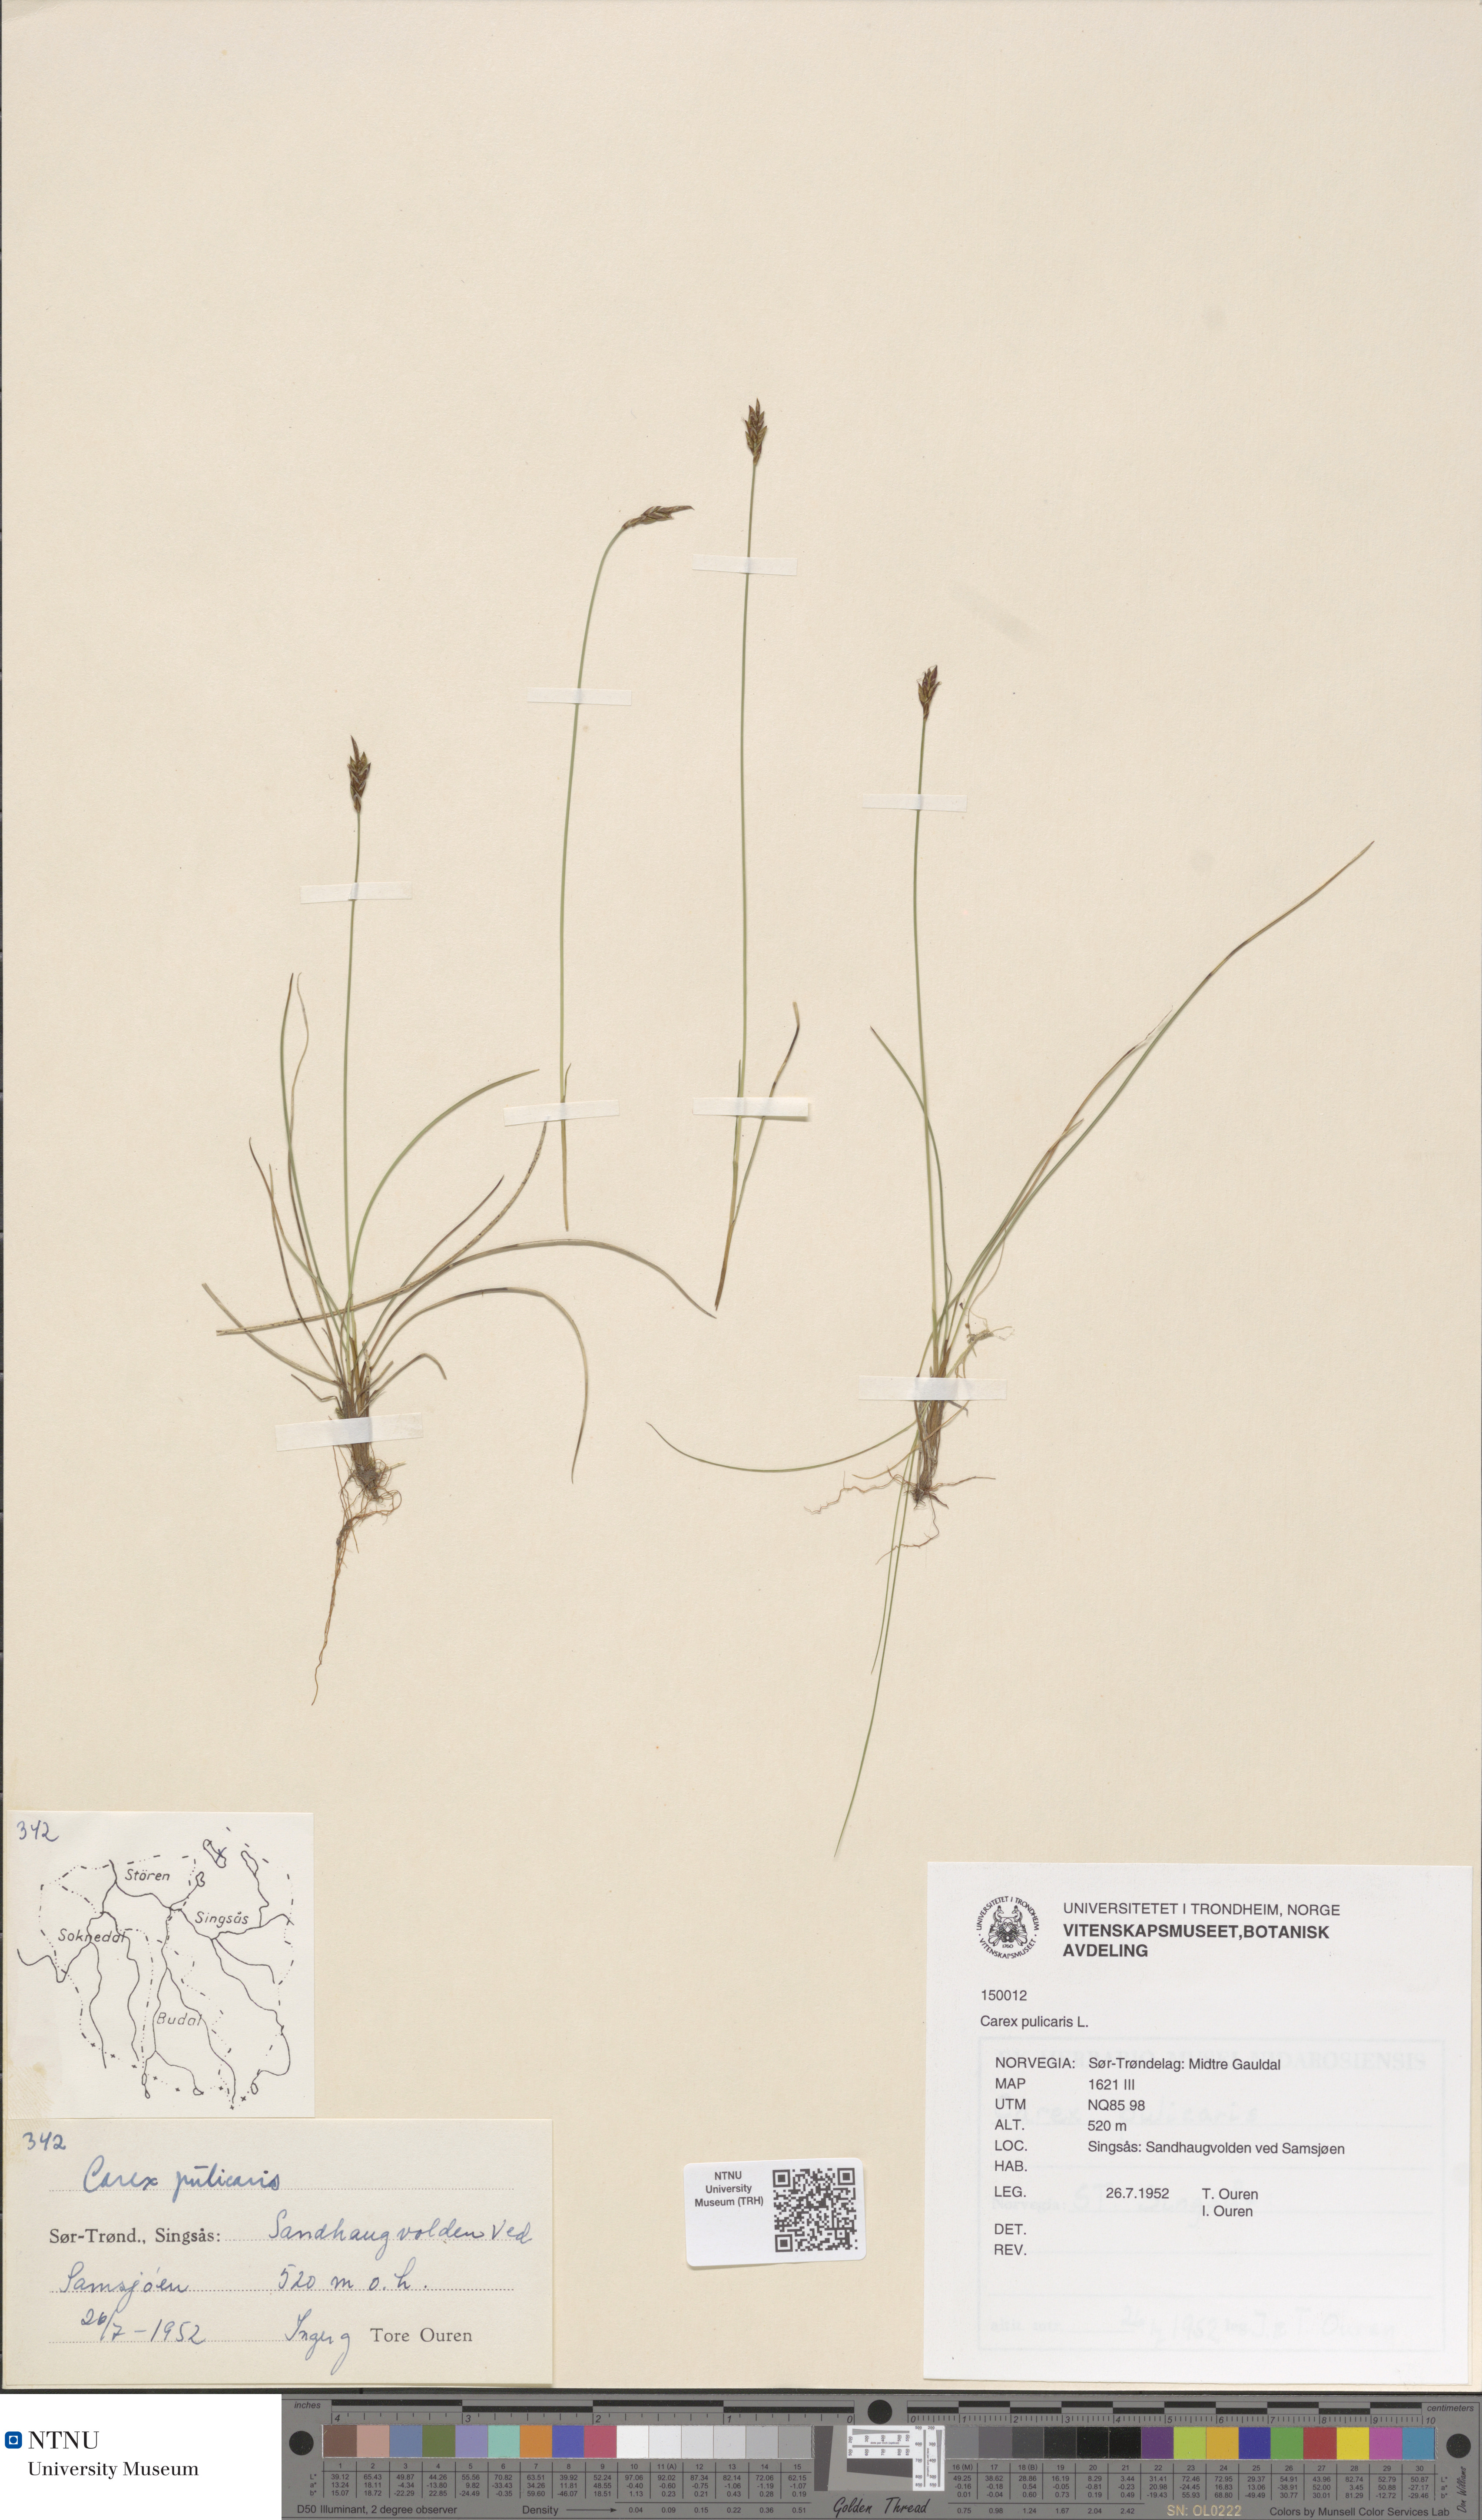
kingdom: Plantae
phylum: Tracheophyta
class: Liliopsida
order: Poales
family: Cyperaceae
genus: Carex
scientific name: Carex pulicaris
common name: Flea sedge
